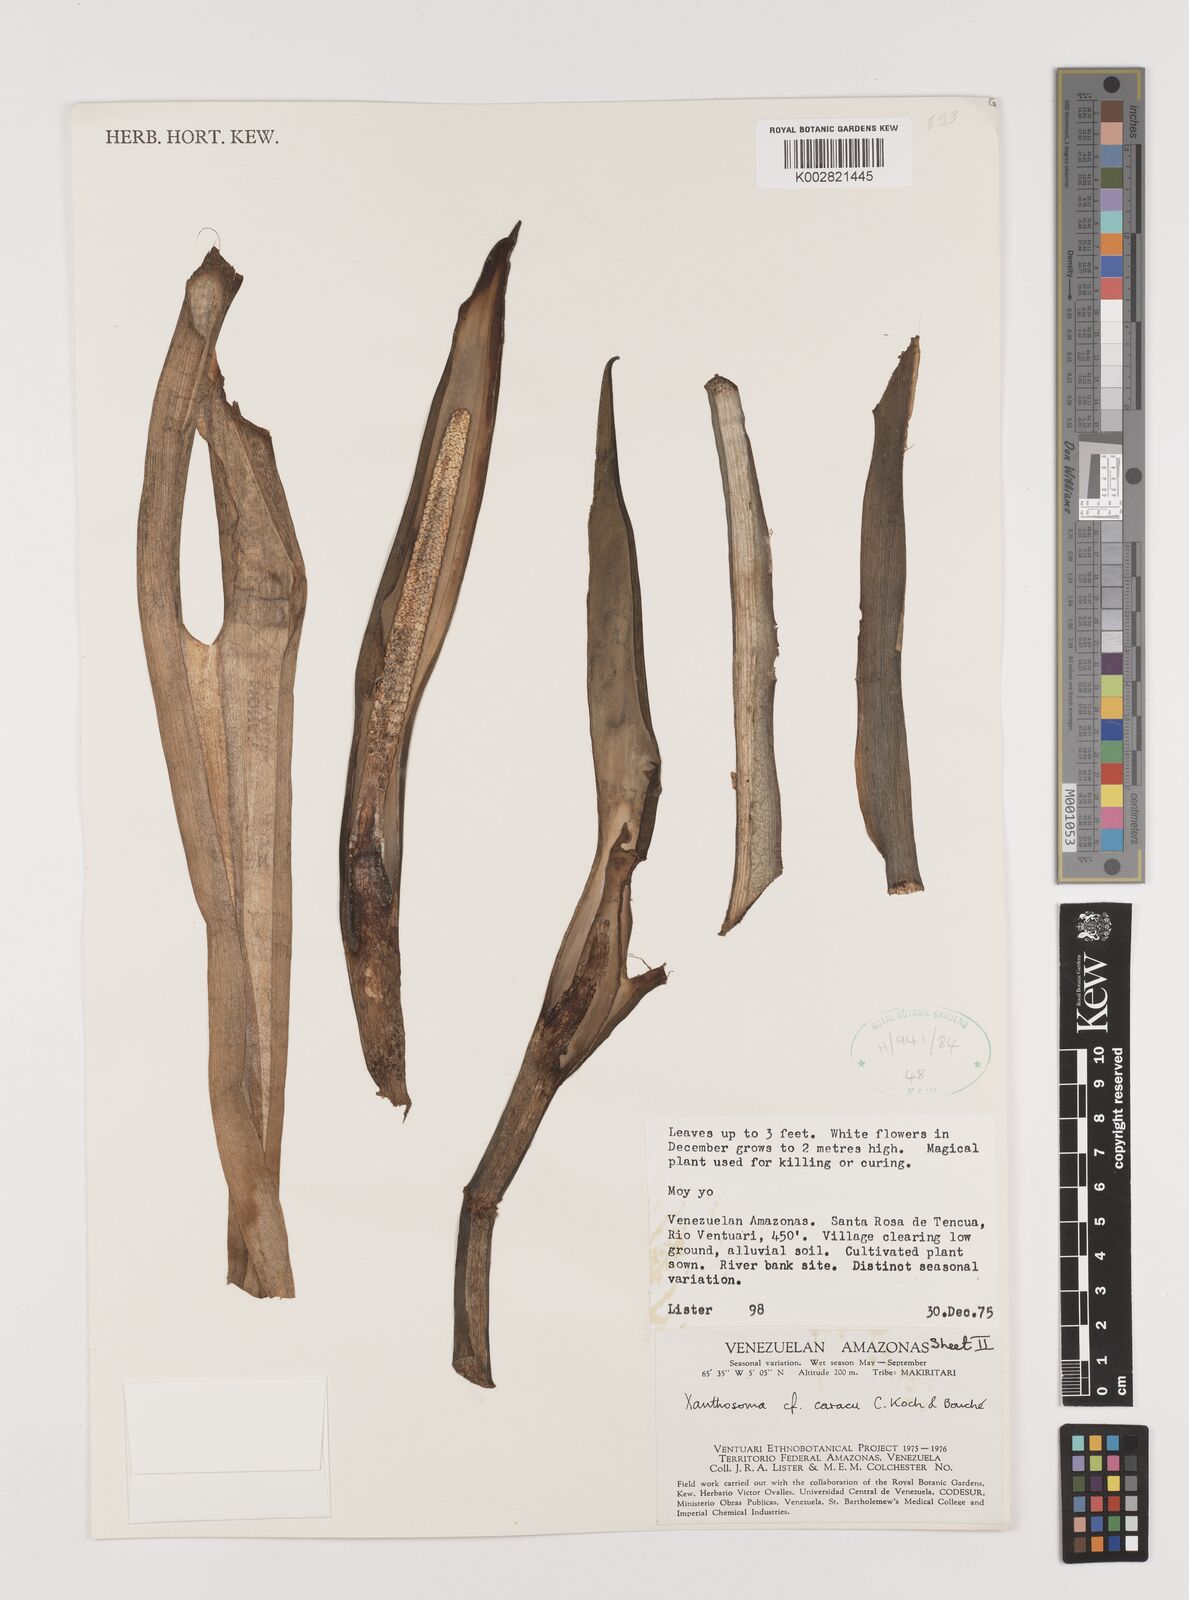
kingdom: Plantae
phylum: Tracheophyta
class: Liliopsida
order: Alismatales
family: Araceae
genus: Xanthosoma
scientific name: Xanthosoma caracu
